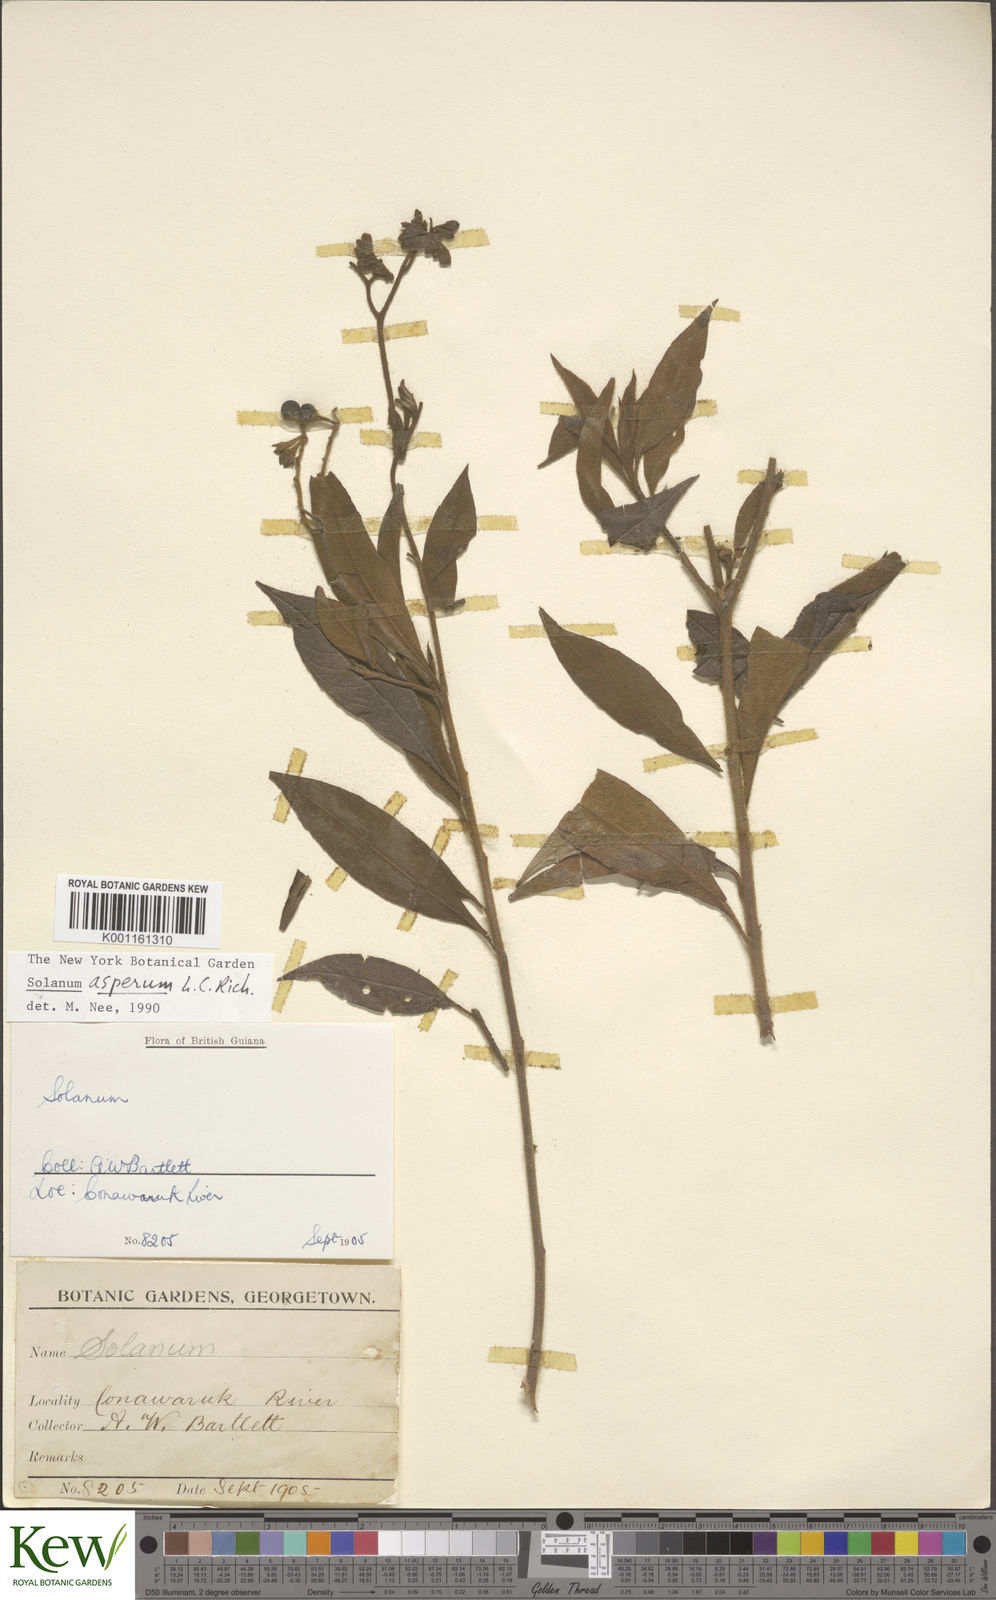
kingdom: Plantae
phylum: Tracheophyta
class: Magnoliopsida
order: Solanales
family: Solanaceae
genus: Solanum
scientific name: Solanum asperum
